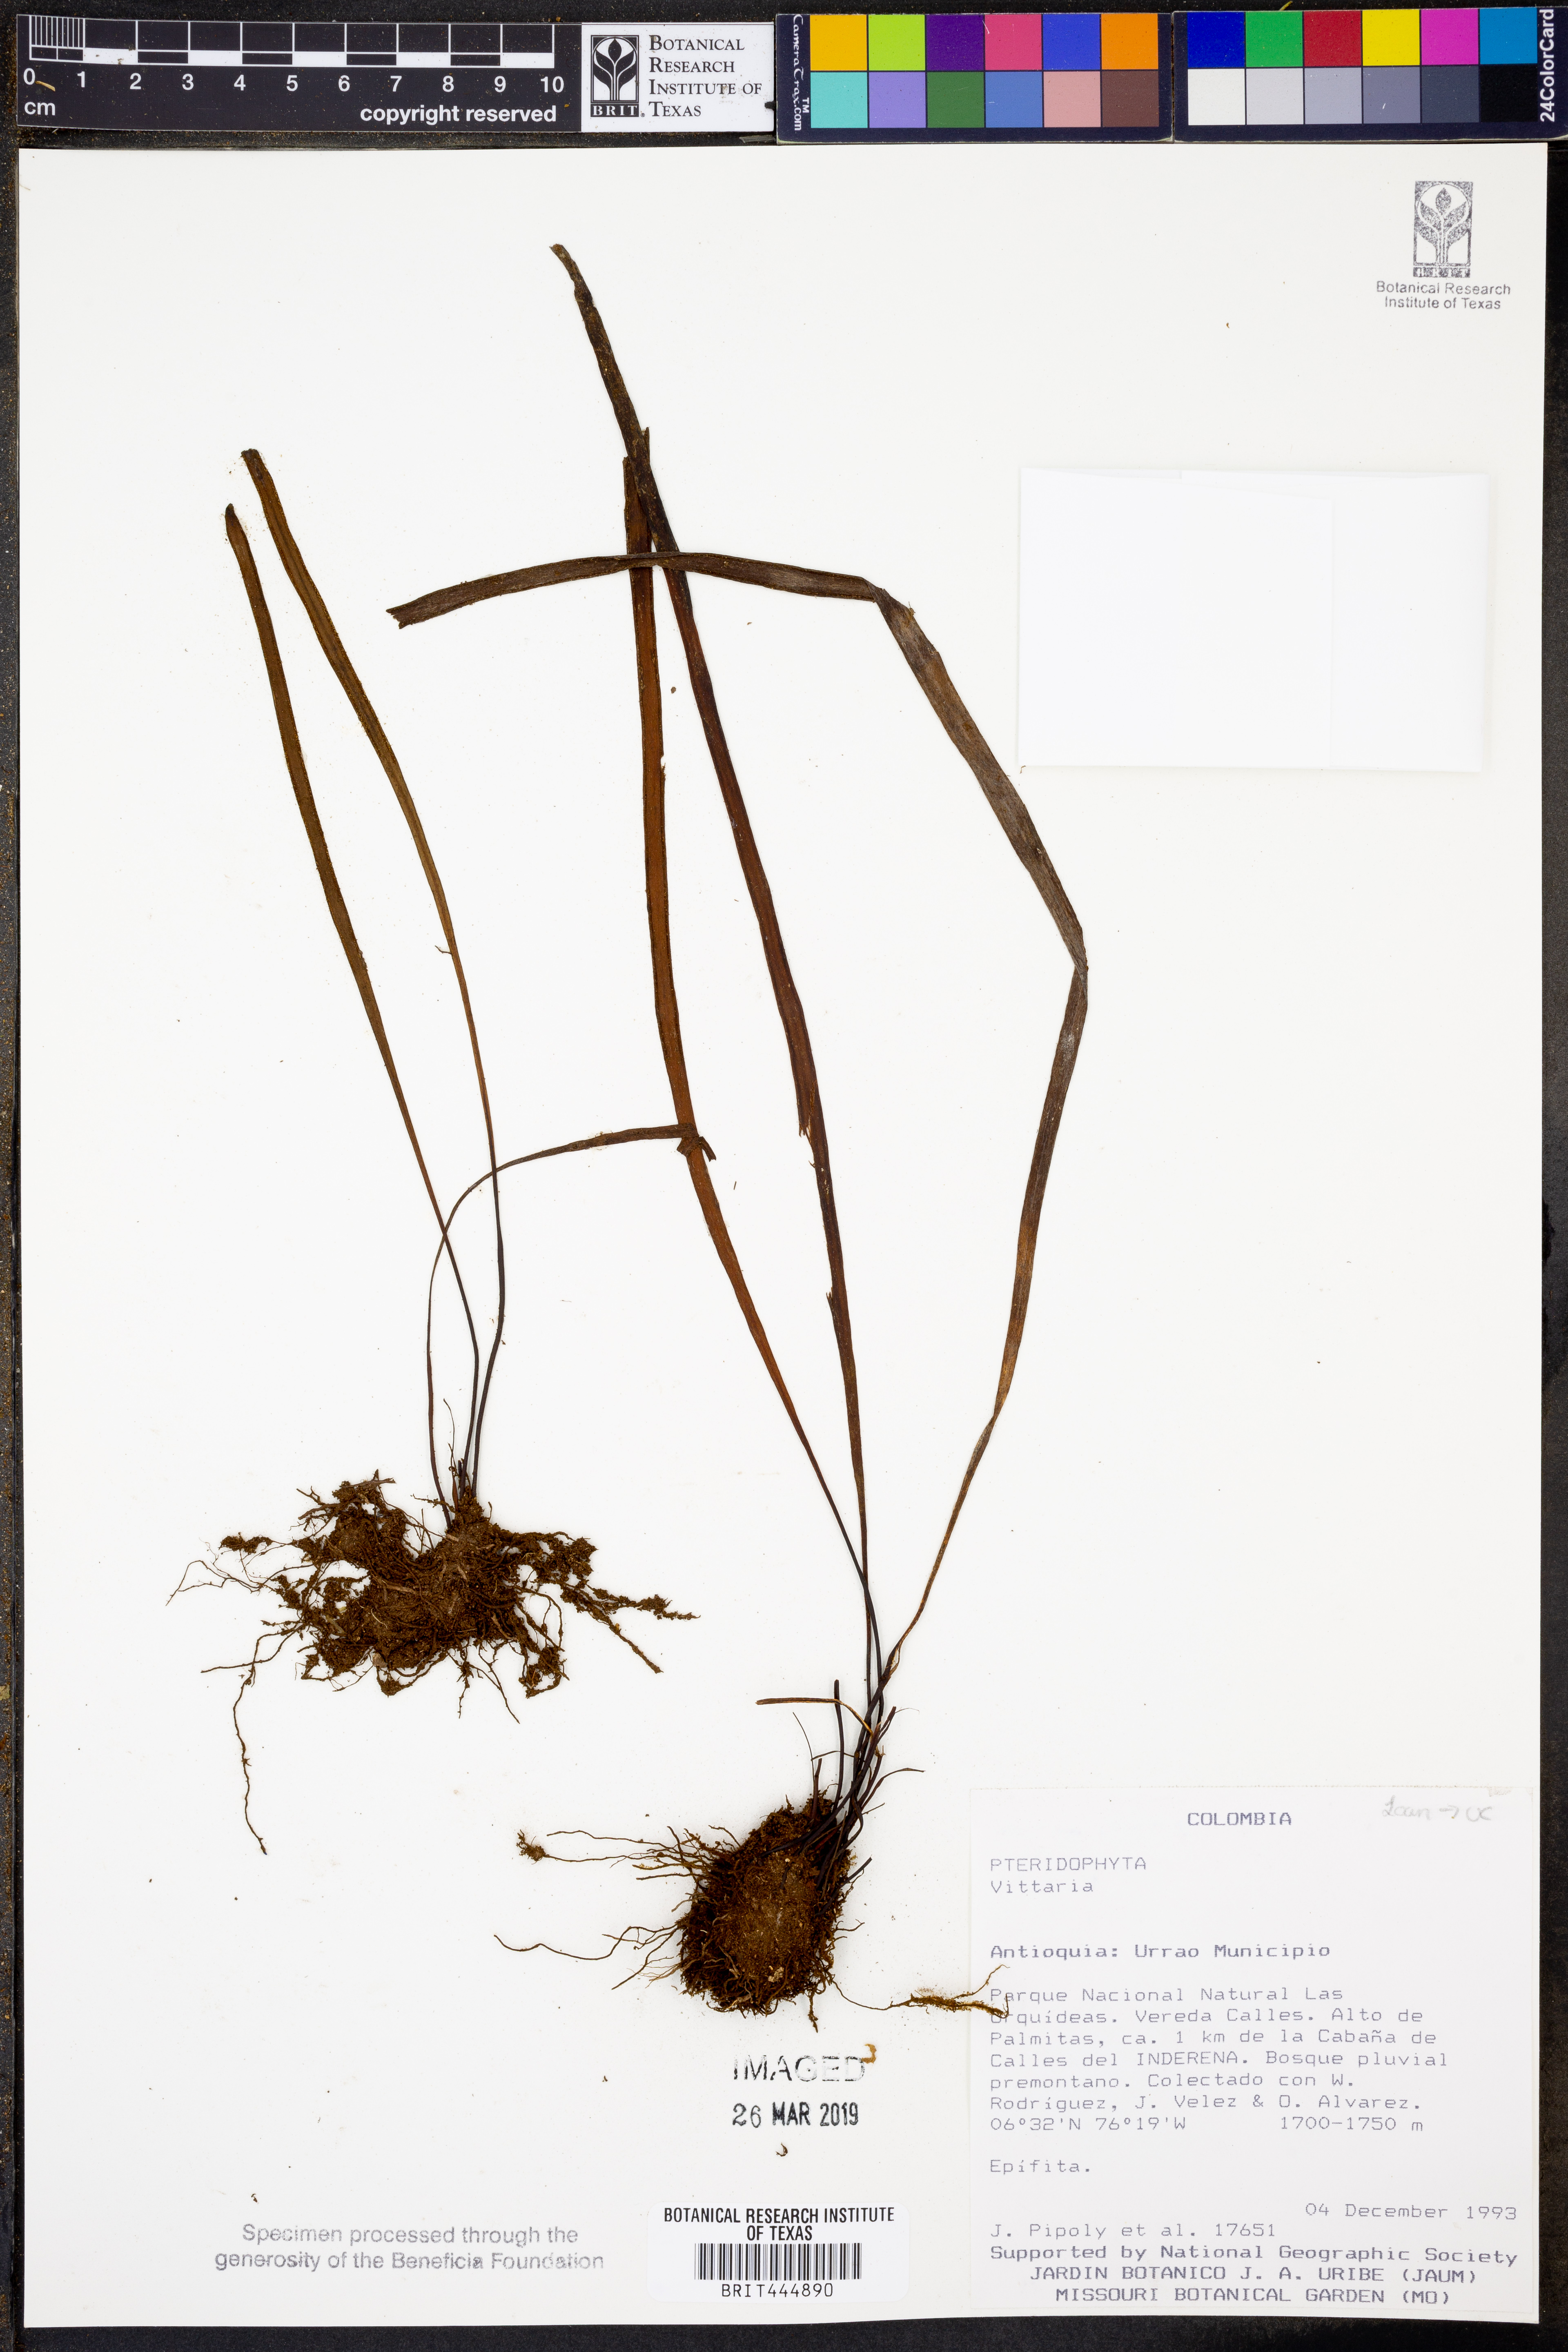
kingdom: Plantae
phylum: Tracheophyta
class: Polypodiopsida
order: Polypodiales
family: Pteridaceae
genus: Vittaria
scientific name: Vittaria
